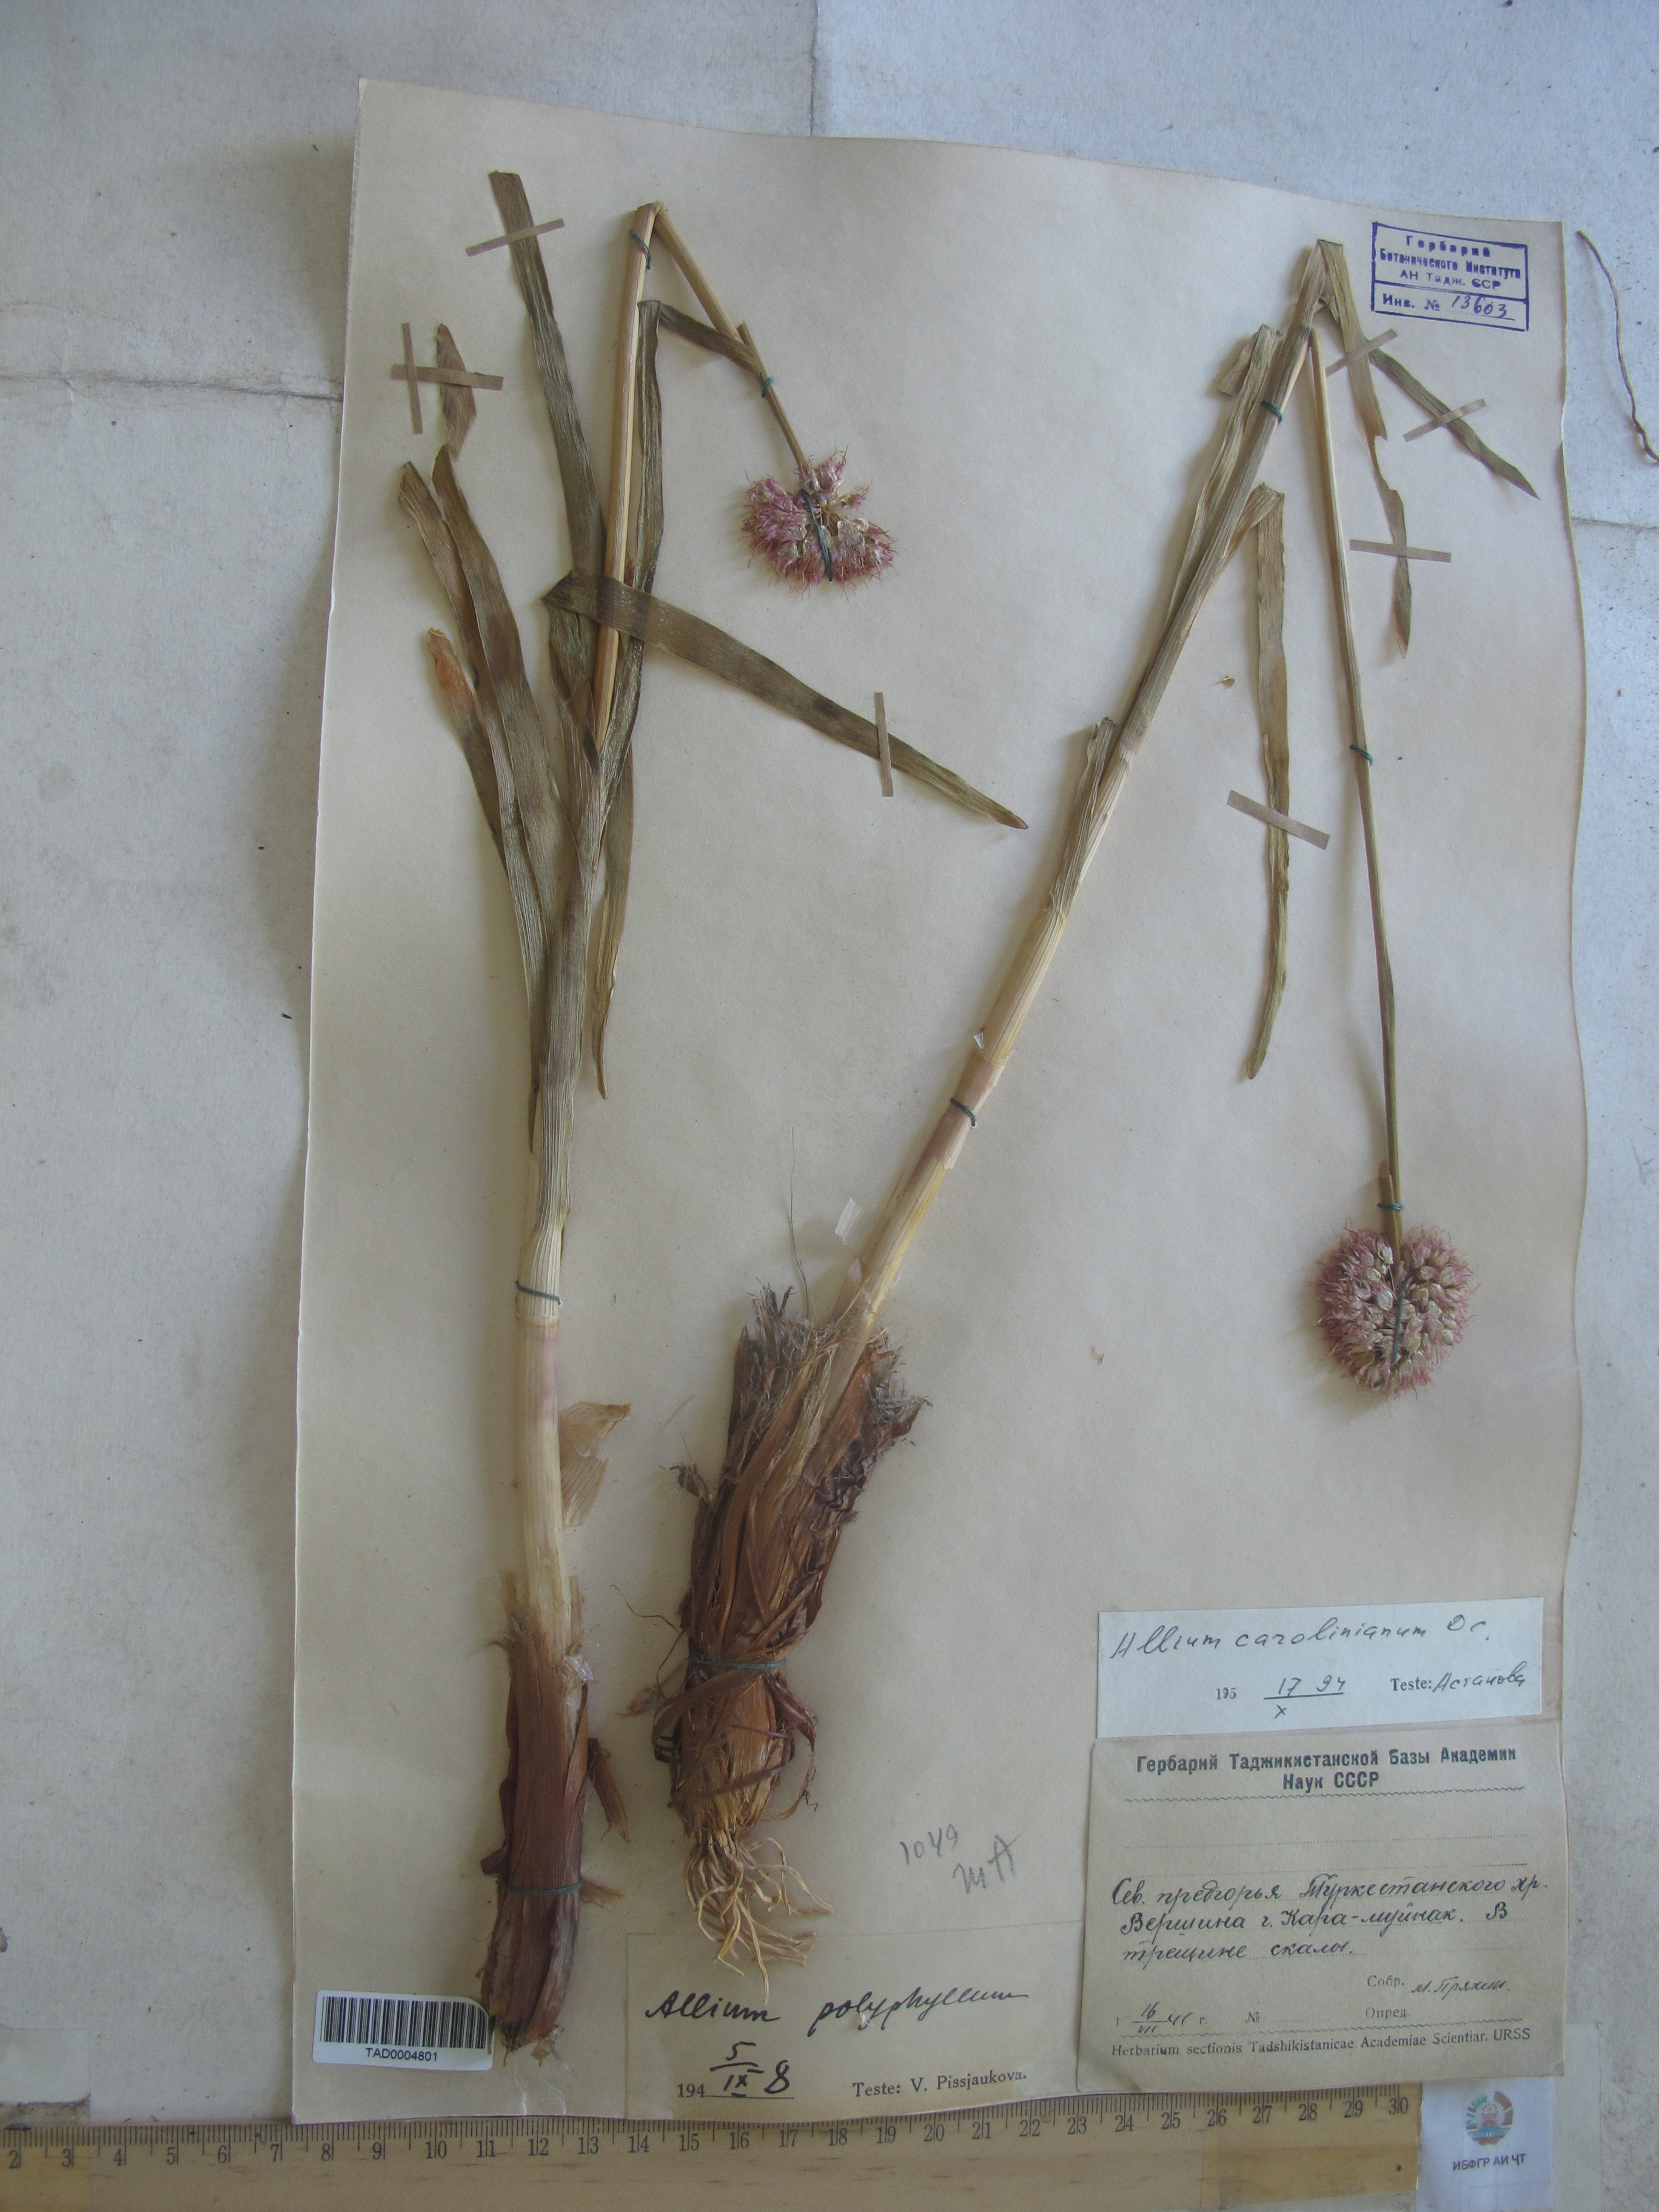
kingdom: Plantae
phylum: Tracheophyta
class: Liliopsida
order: Asparagales
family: Amaryllidaceae
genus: Allium
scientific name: Allium carolinianum
